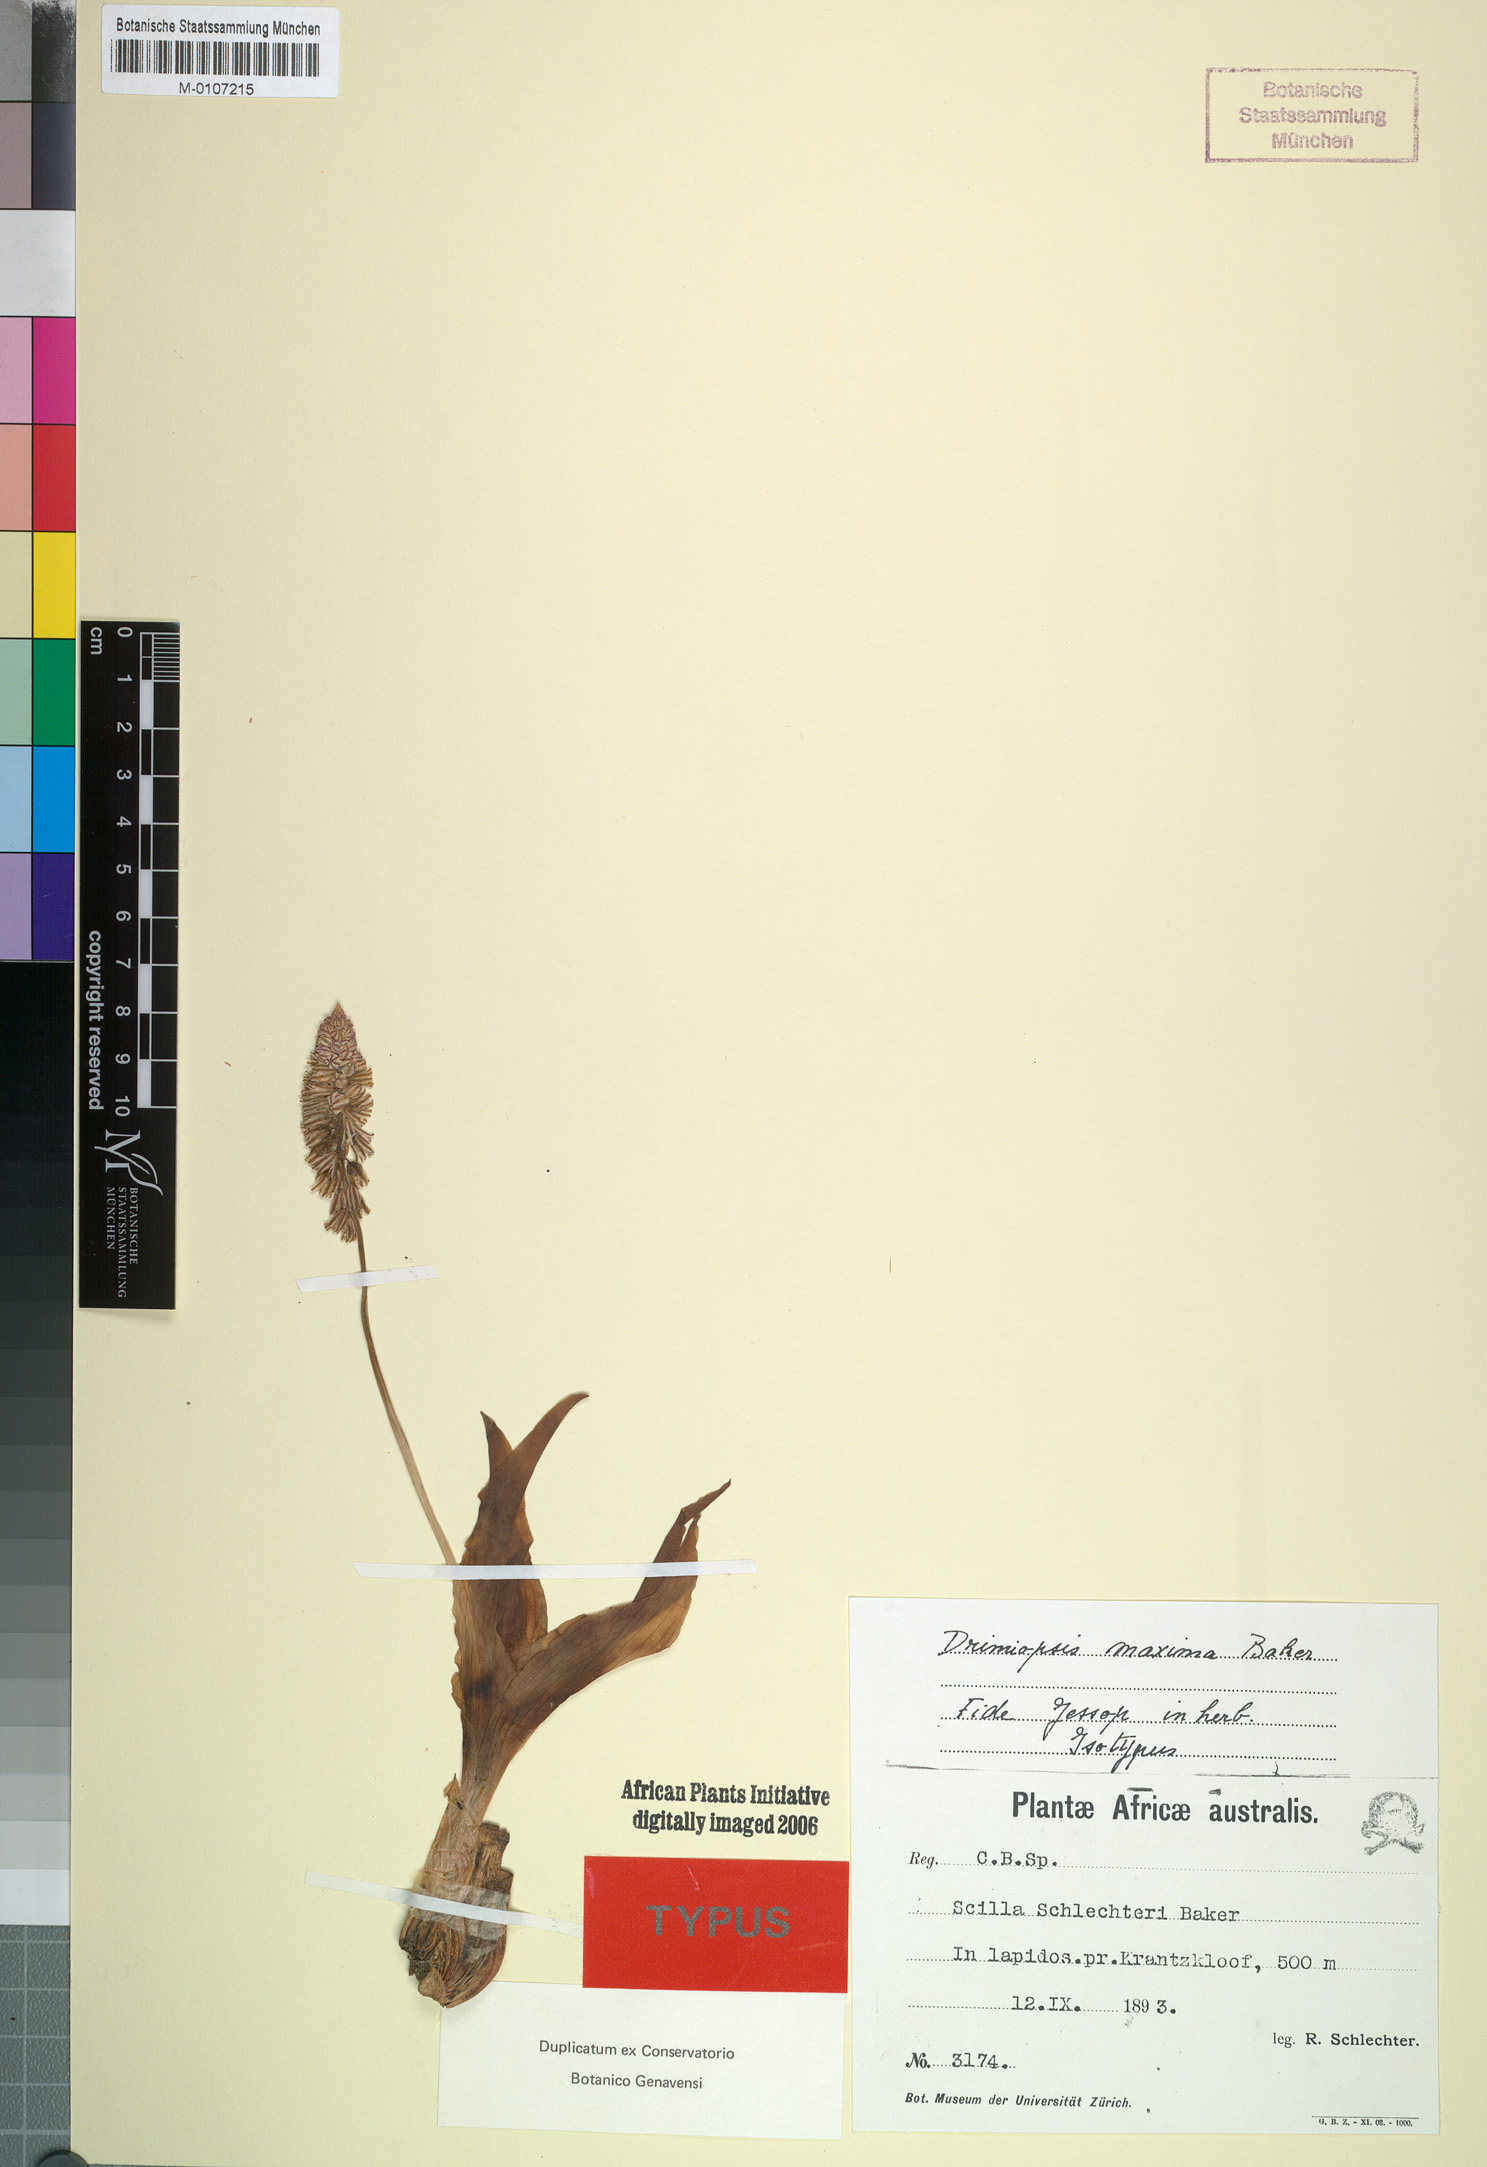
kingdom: Plantae
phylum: Tracheophyta
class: Liliopsida
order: Asparagales
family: Asparagaceae
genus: Resnova
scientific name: Resnova humifusa
